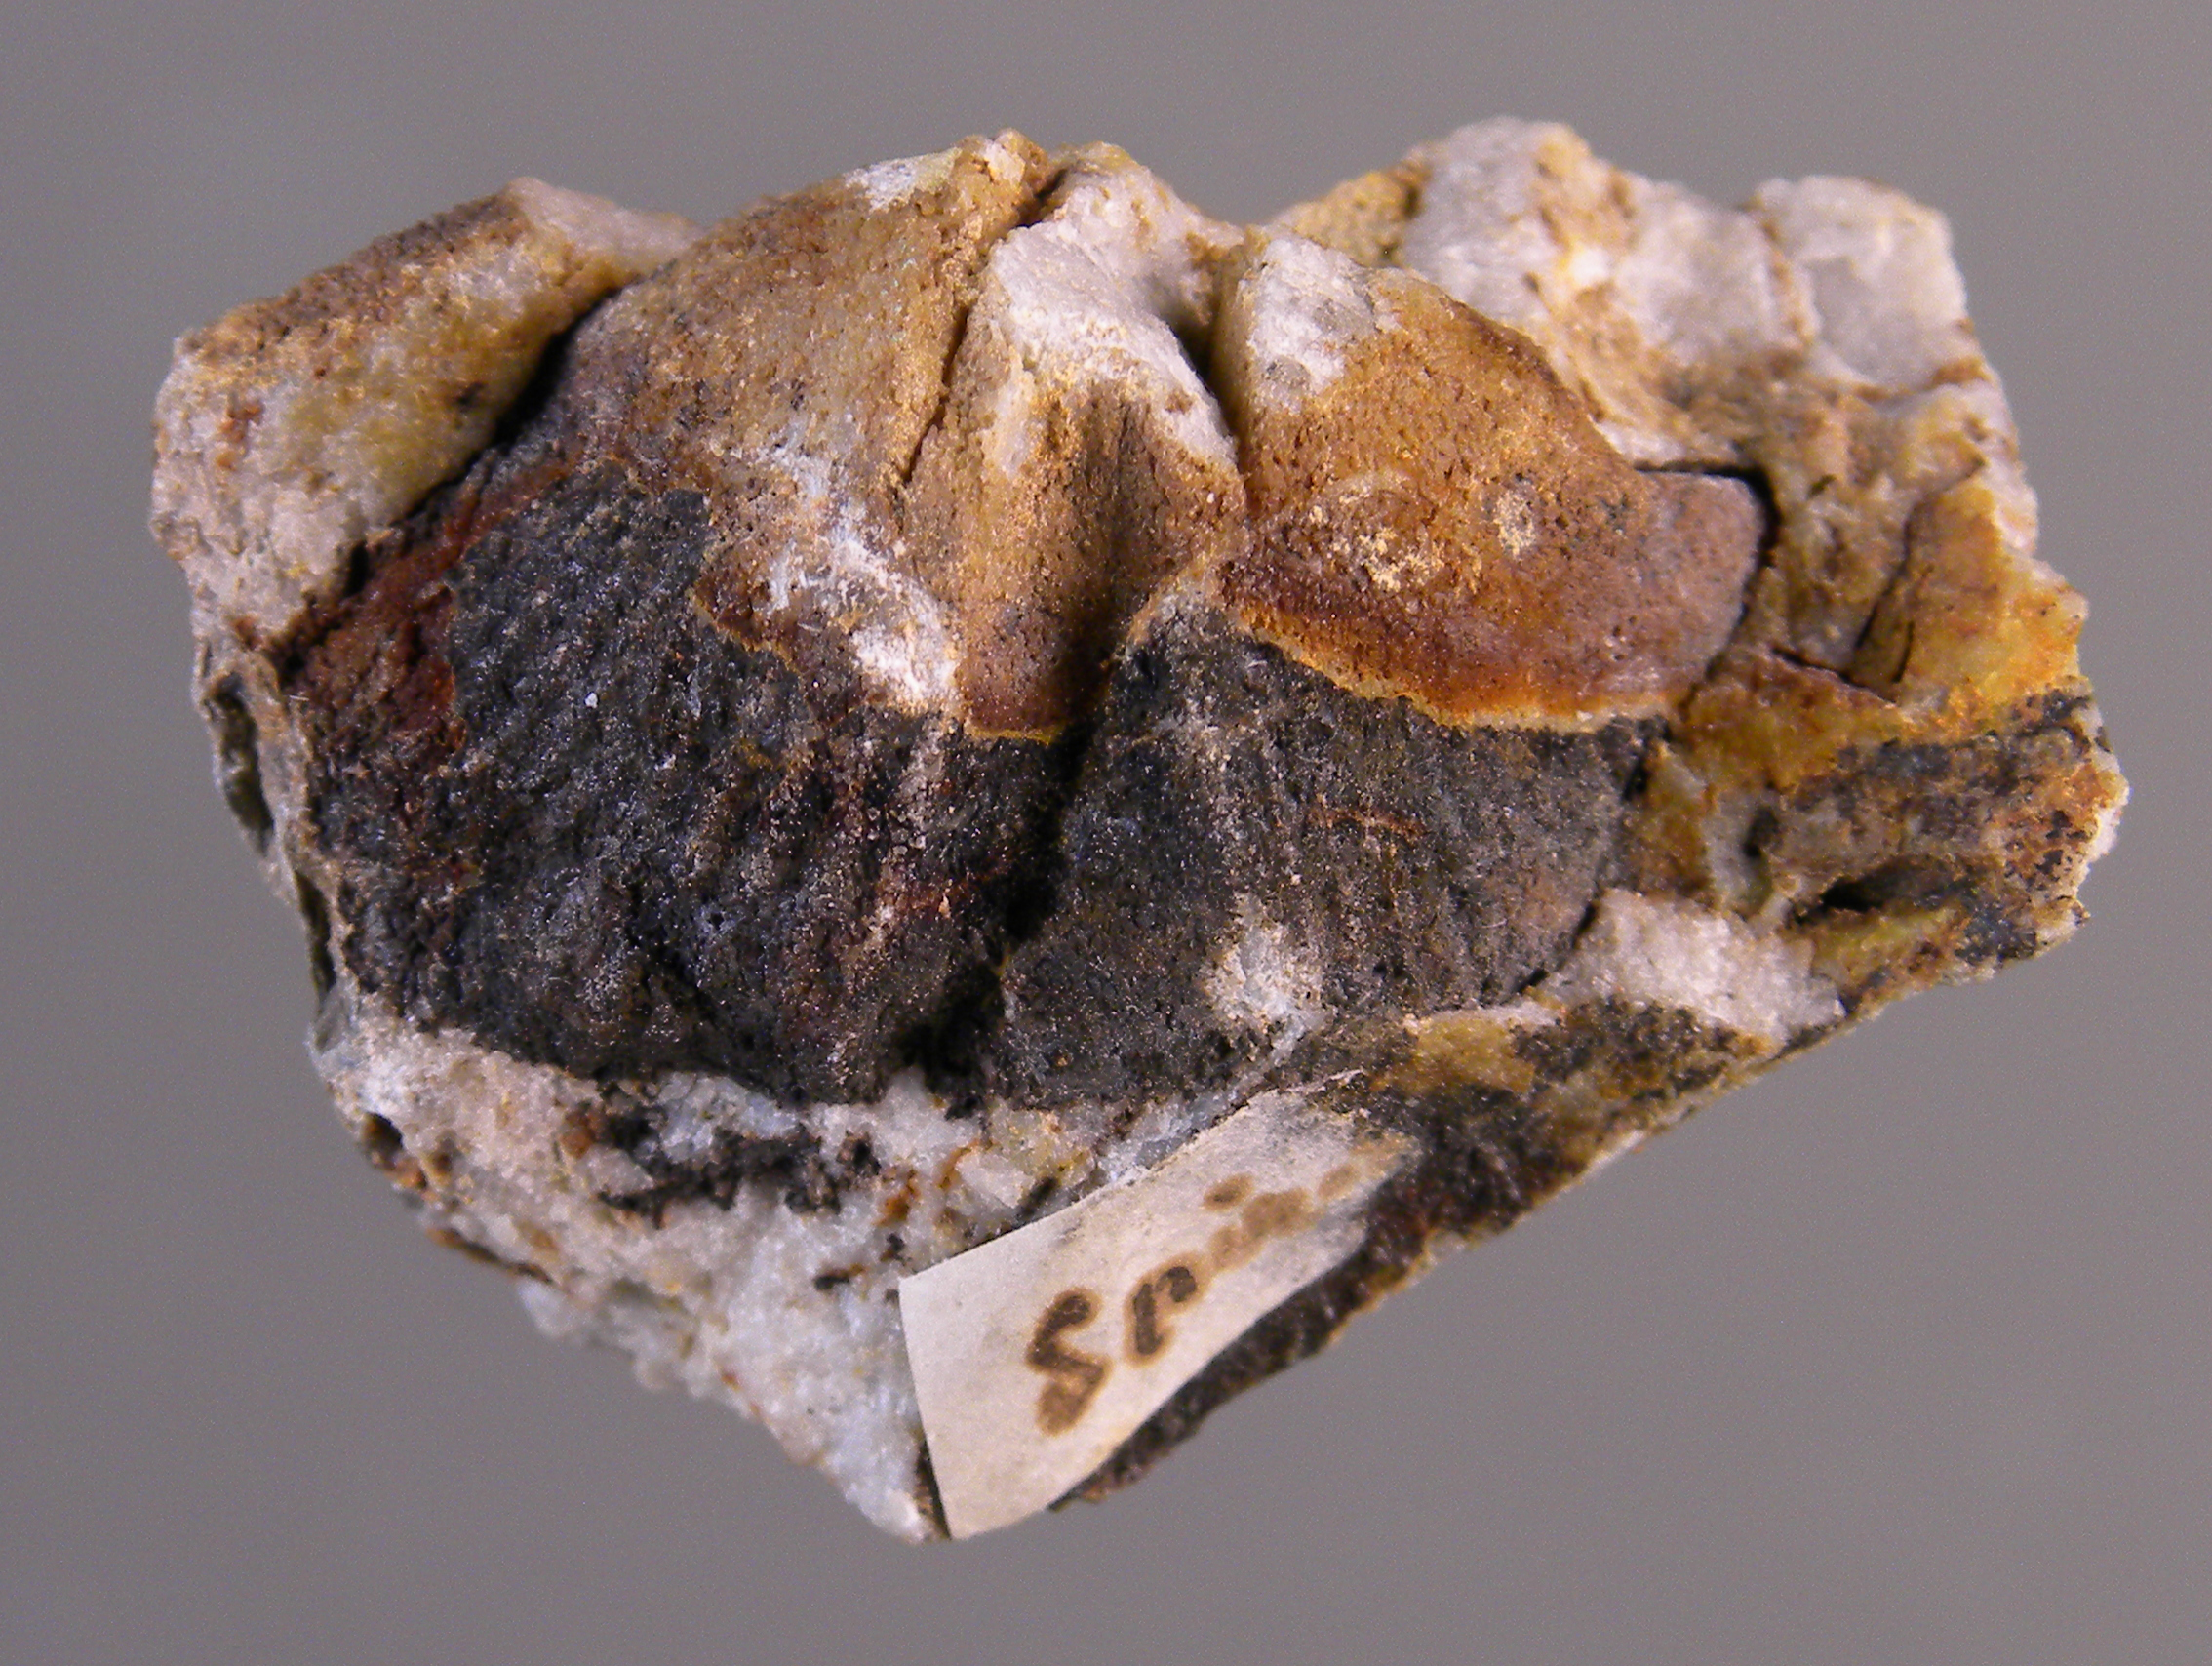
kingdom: Animalia
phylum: Brachiopoda
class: Rhynchonellata
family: Spinocyrtiidae
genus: Subcuspidella
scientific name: Subcuspidella
